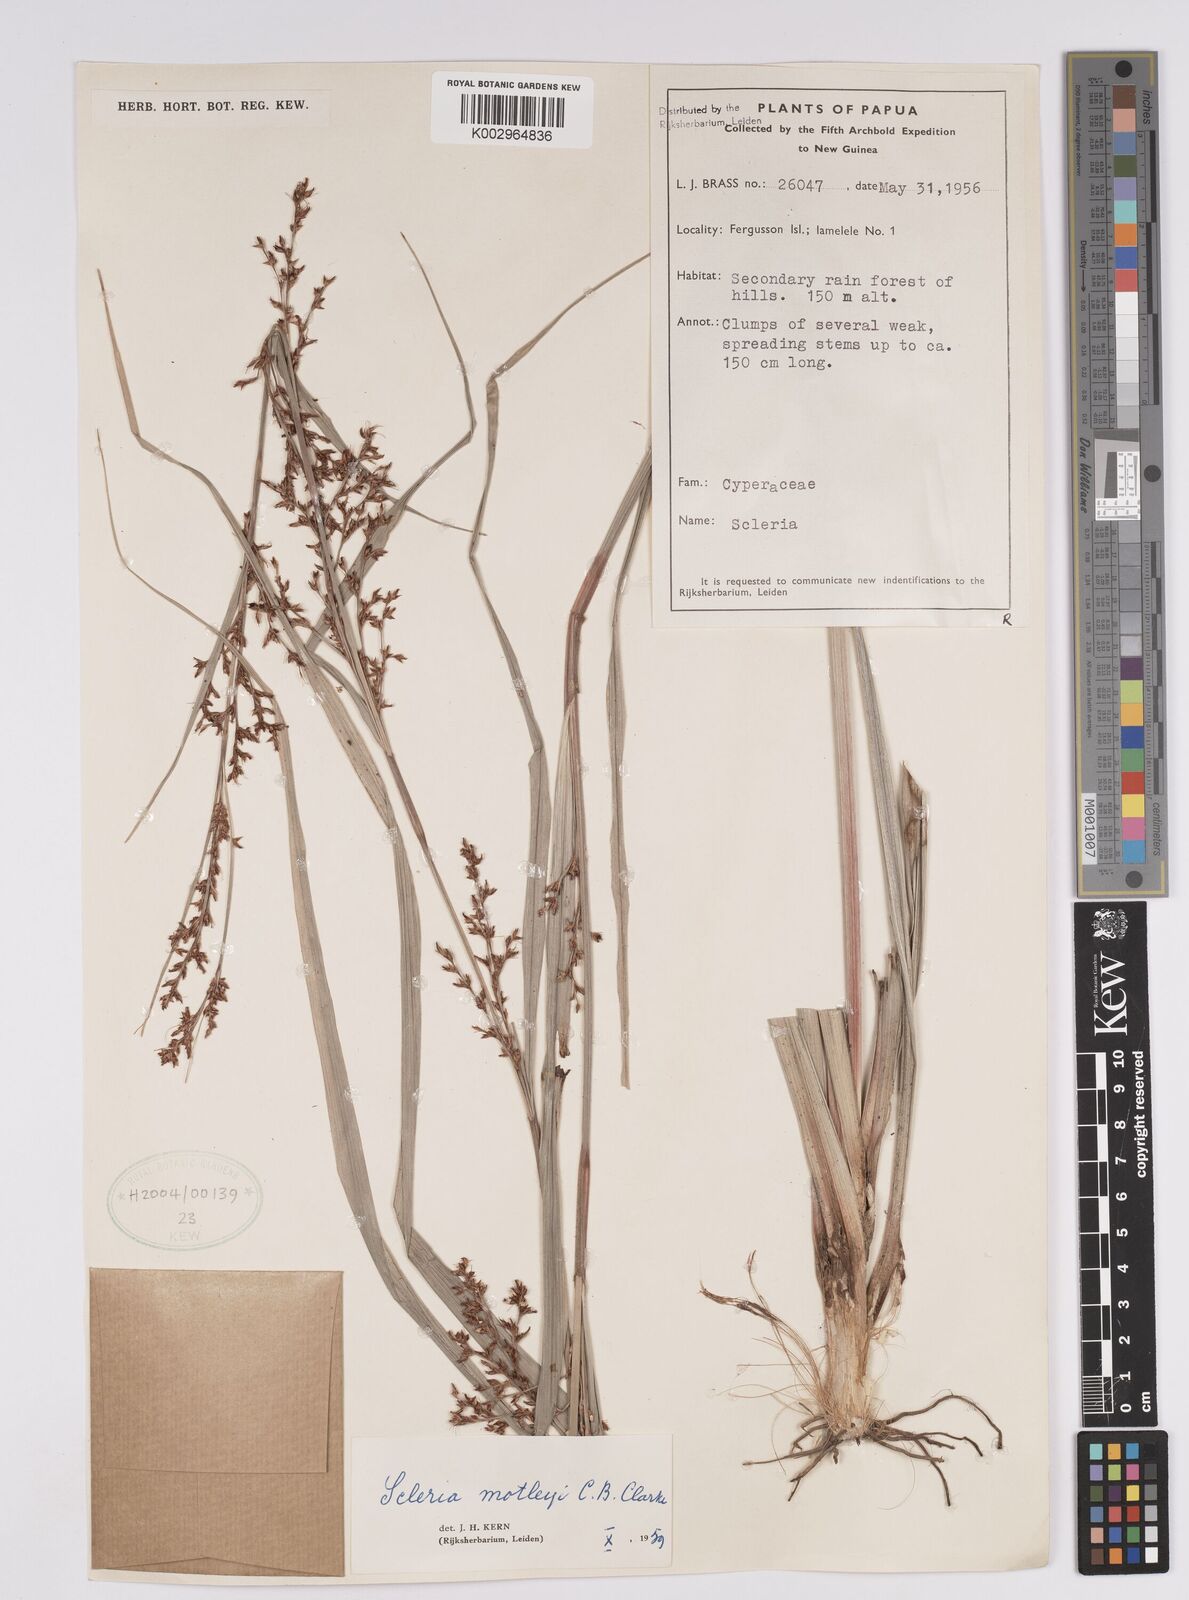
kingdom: Plantae
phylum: Tracheophyta
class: Liliopsida
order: Poales
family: Cyperaceae
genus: Scleria
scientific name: Scleria motleyi
